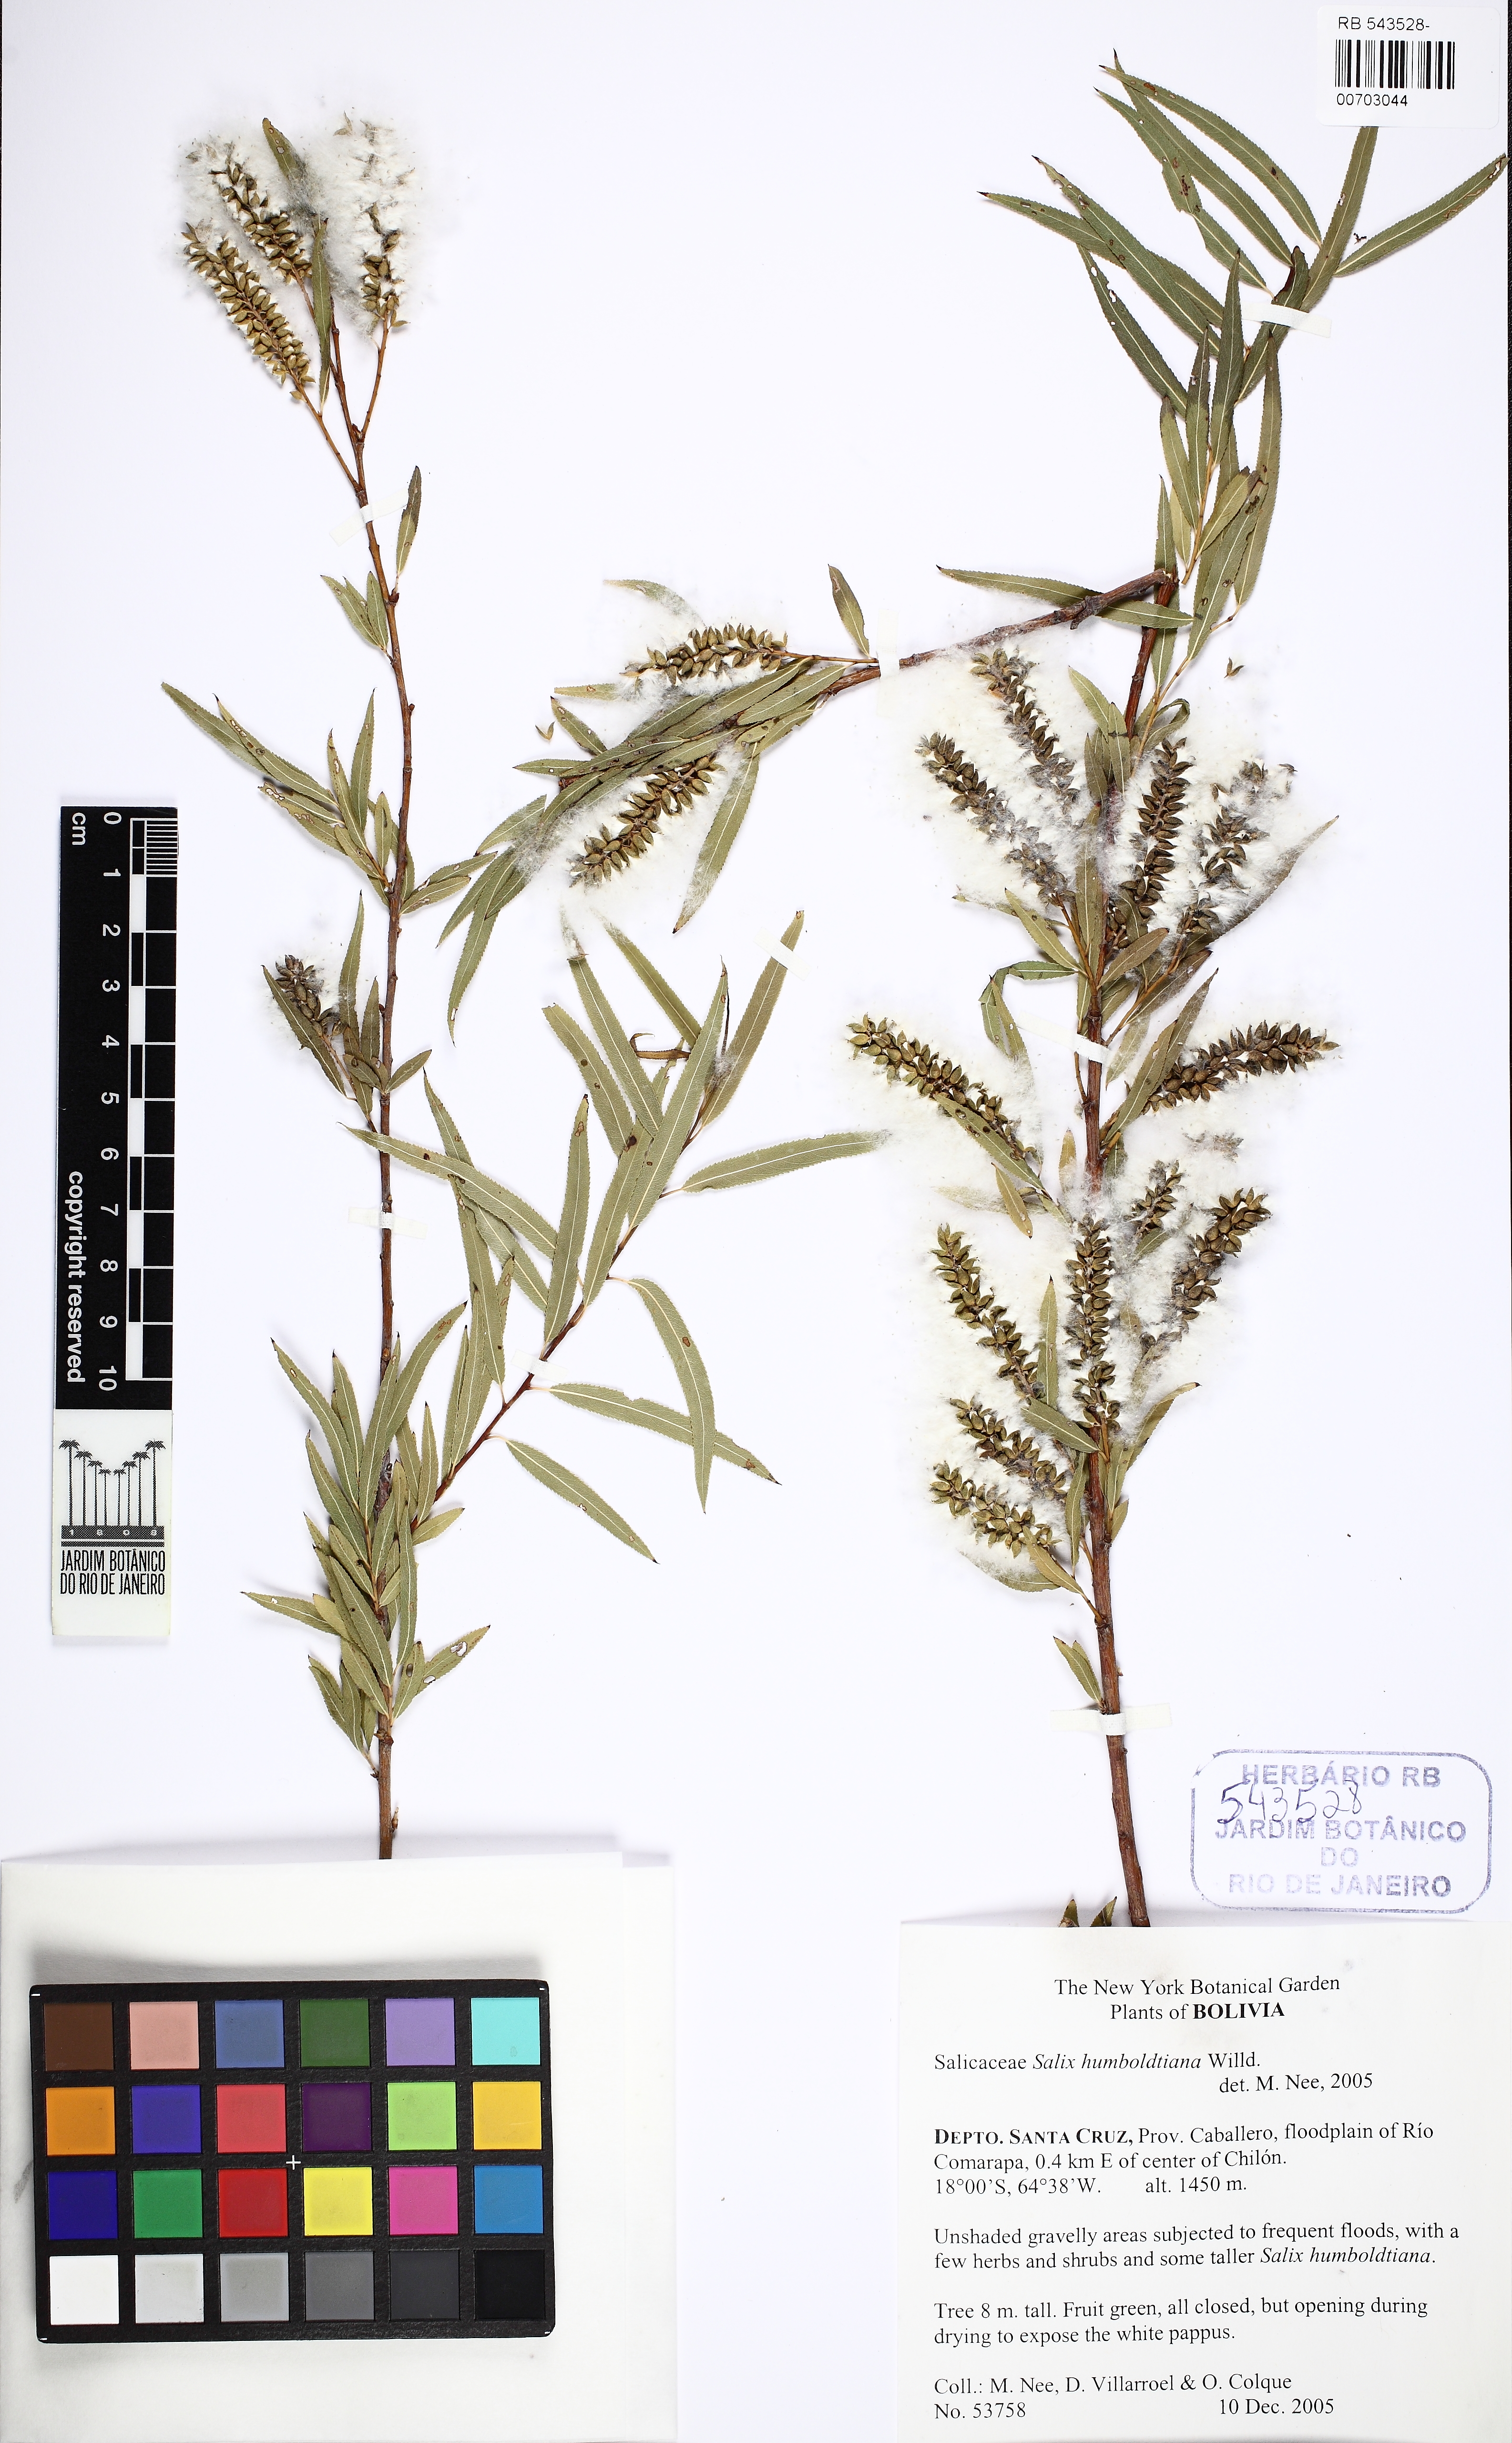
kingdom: Plantae
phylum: Tracheophyta
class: Magnoliopsida
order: Malpighiales
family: Salicaceae
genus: Salix
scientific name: Salix humboldtiana
